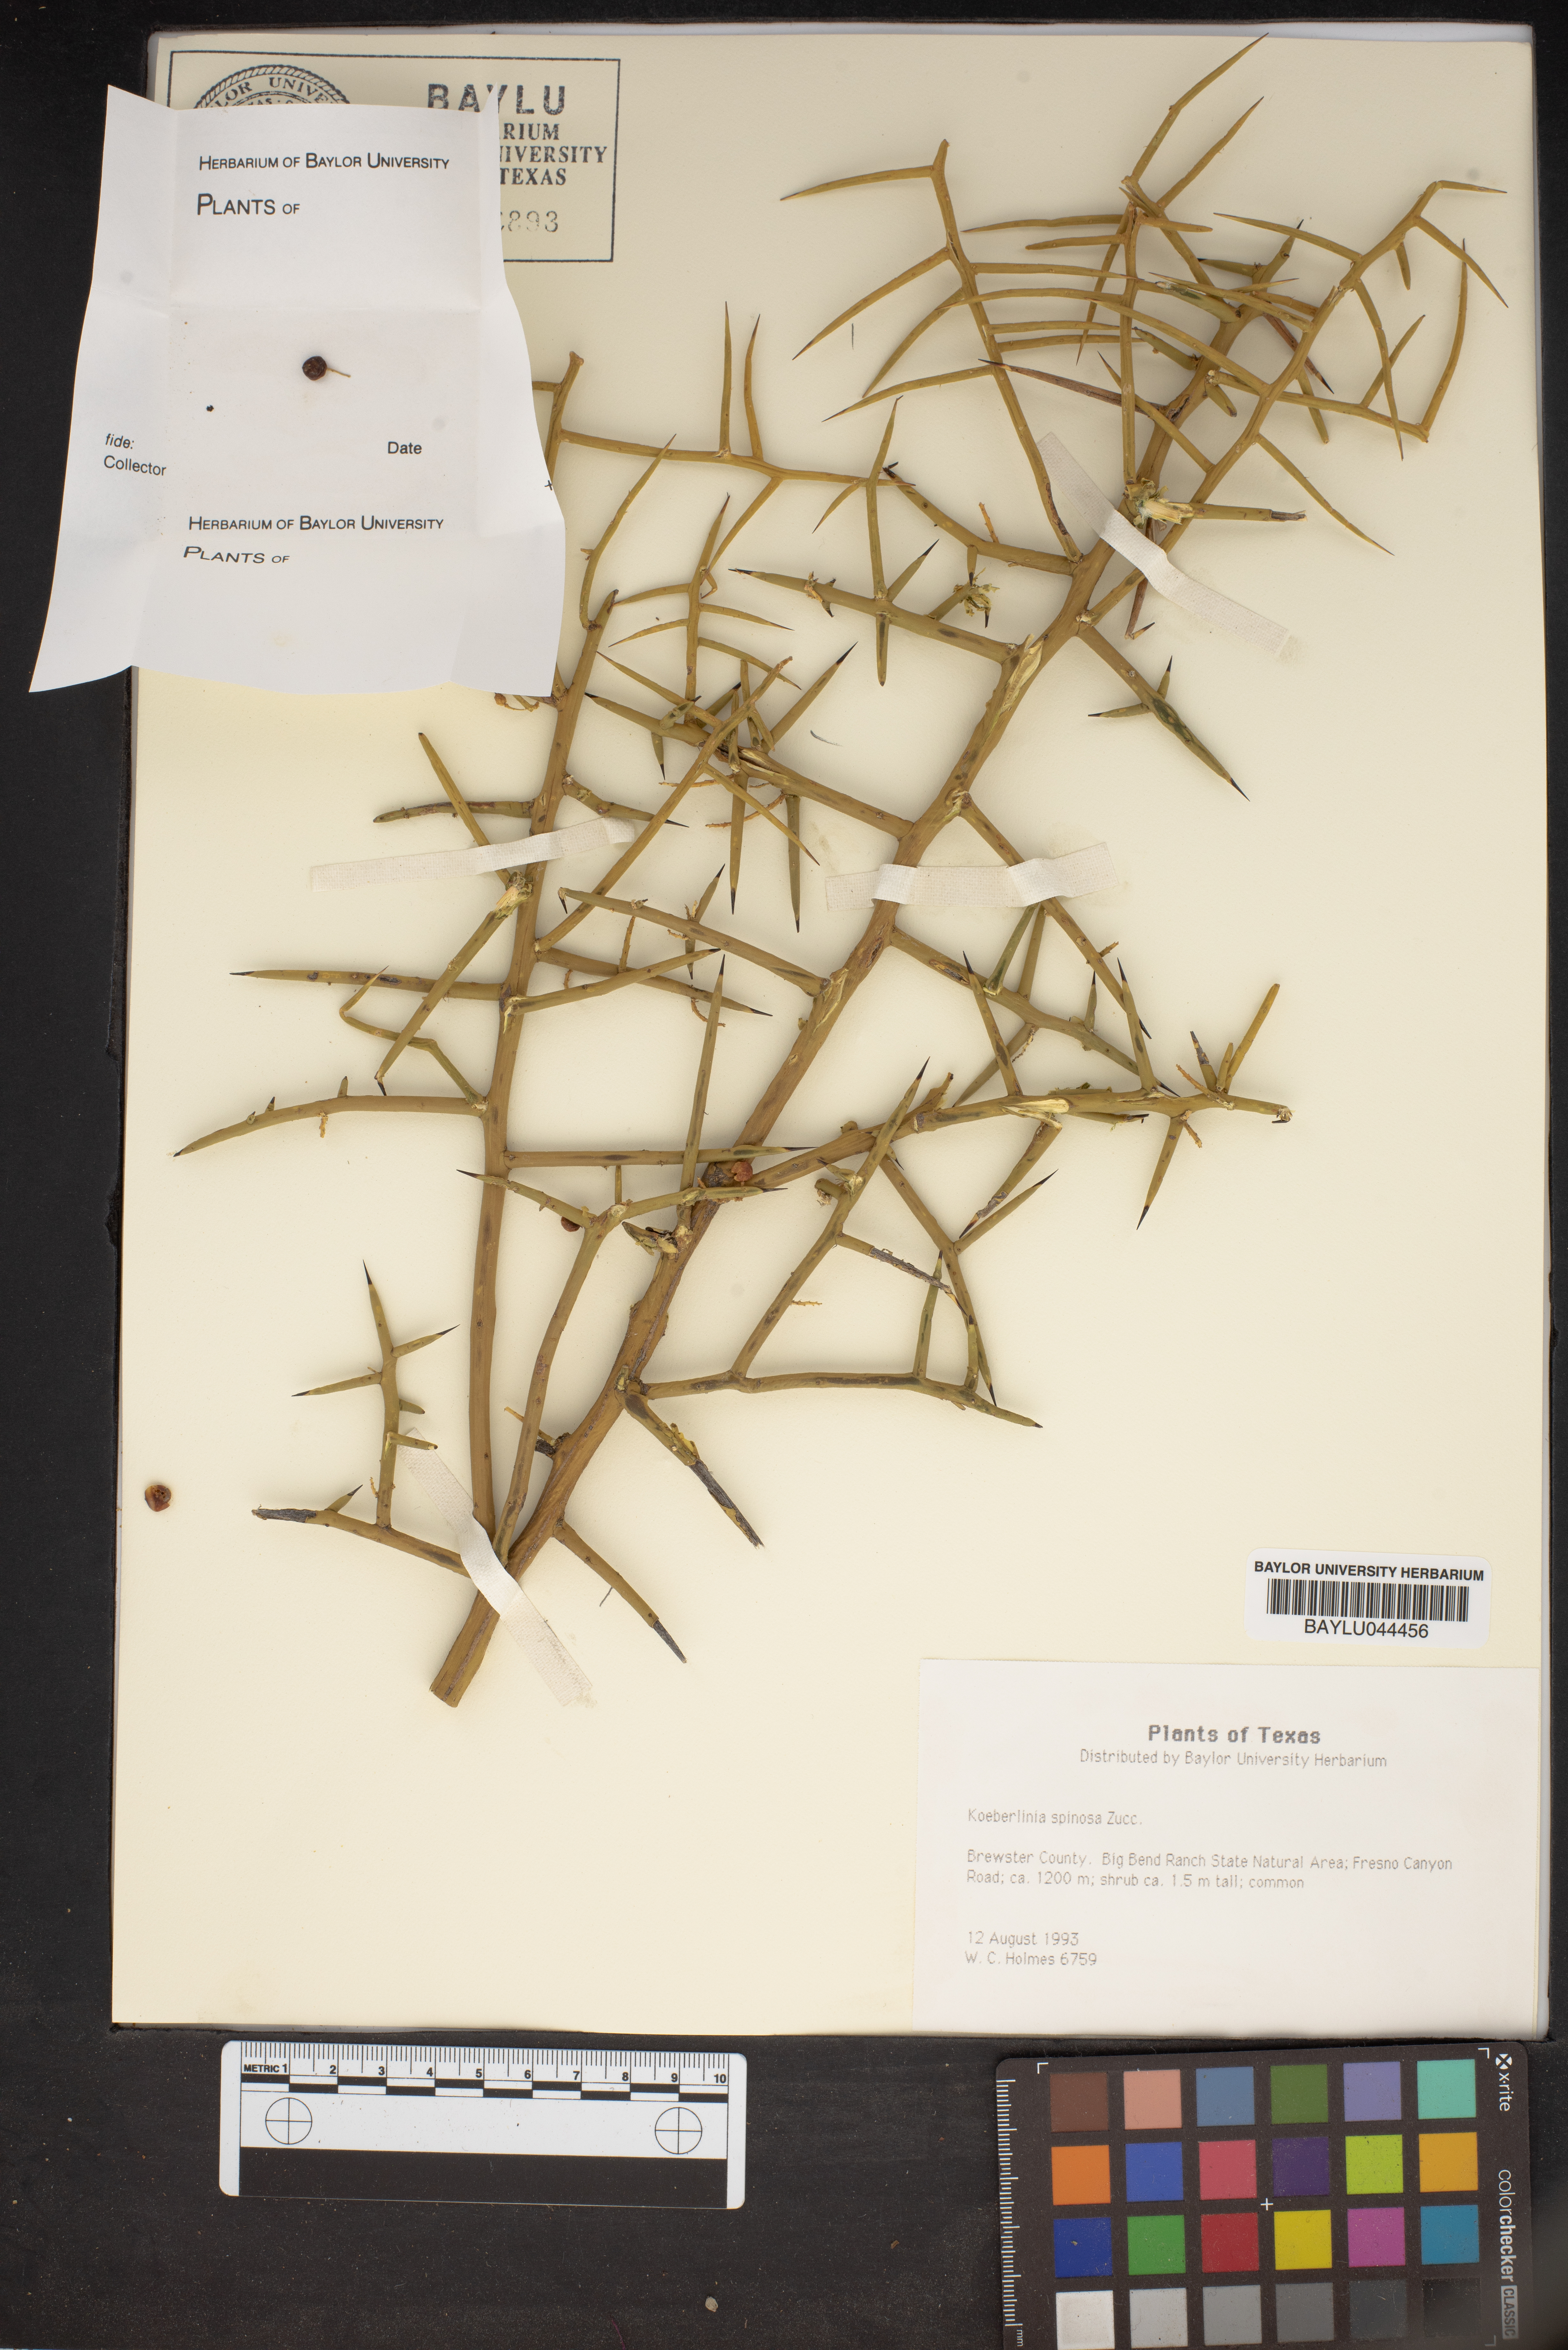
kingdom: Plantae
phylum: Tracheophyta
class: Magnoliopsida
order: Brassicales
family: Koeberliniaceae
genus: Koeberlinia
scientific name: Koeberlinia spinosa
